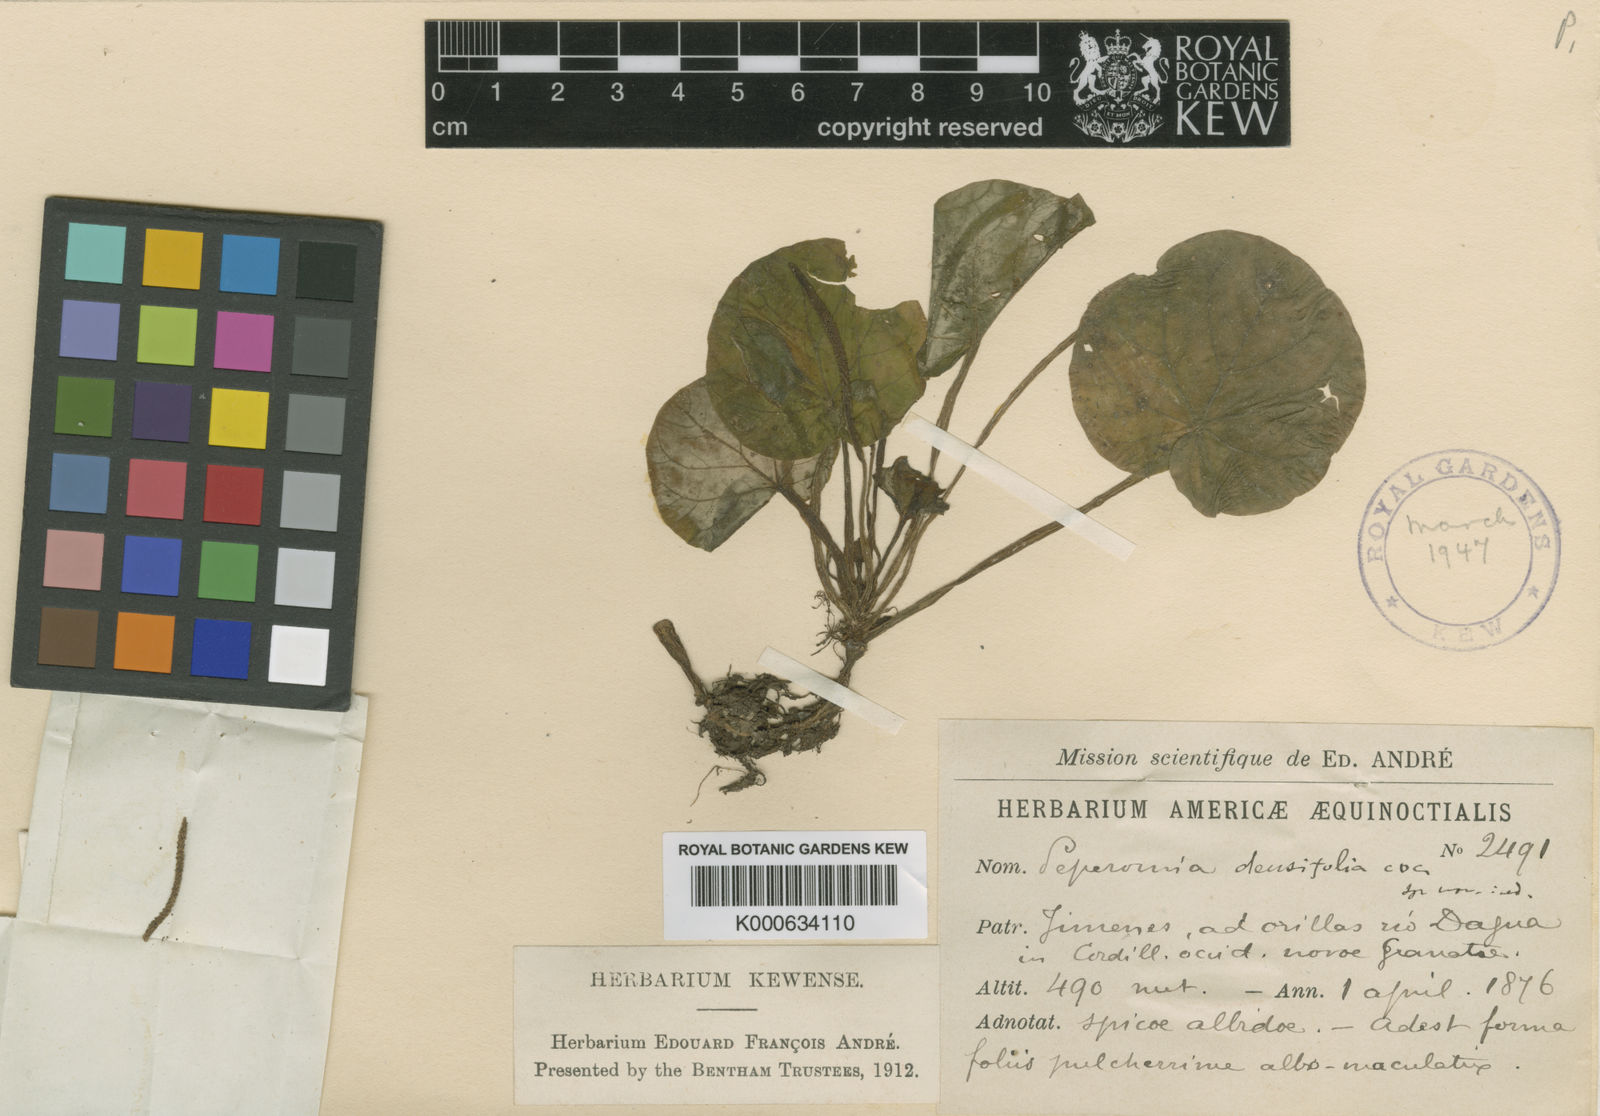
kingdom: Plantae
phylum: Tracheophyta
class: Magnoliopsida
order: Piperales
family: Piperaceae
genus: Peperomia
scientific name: Peperomia
